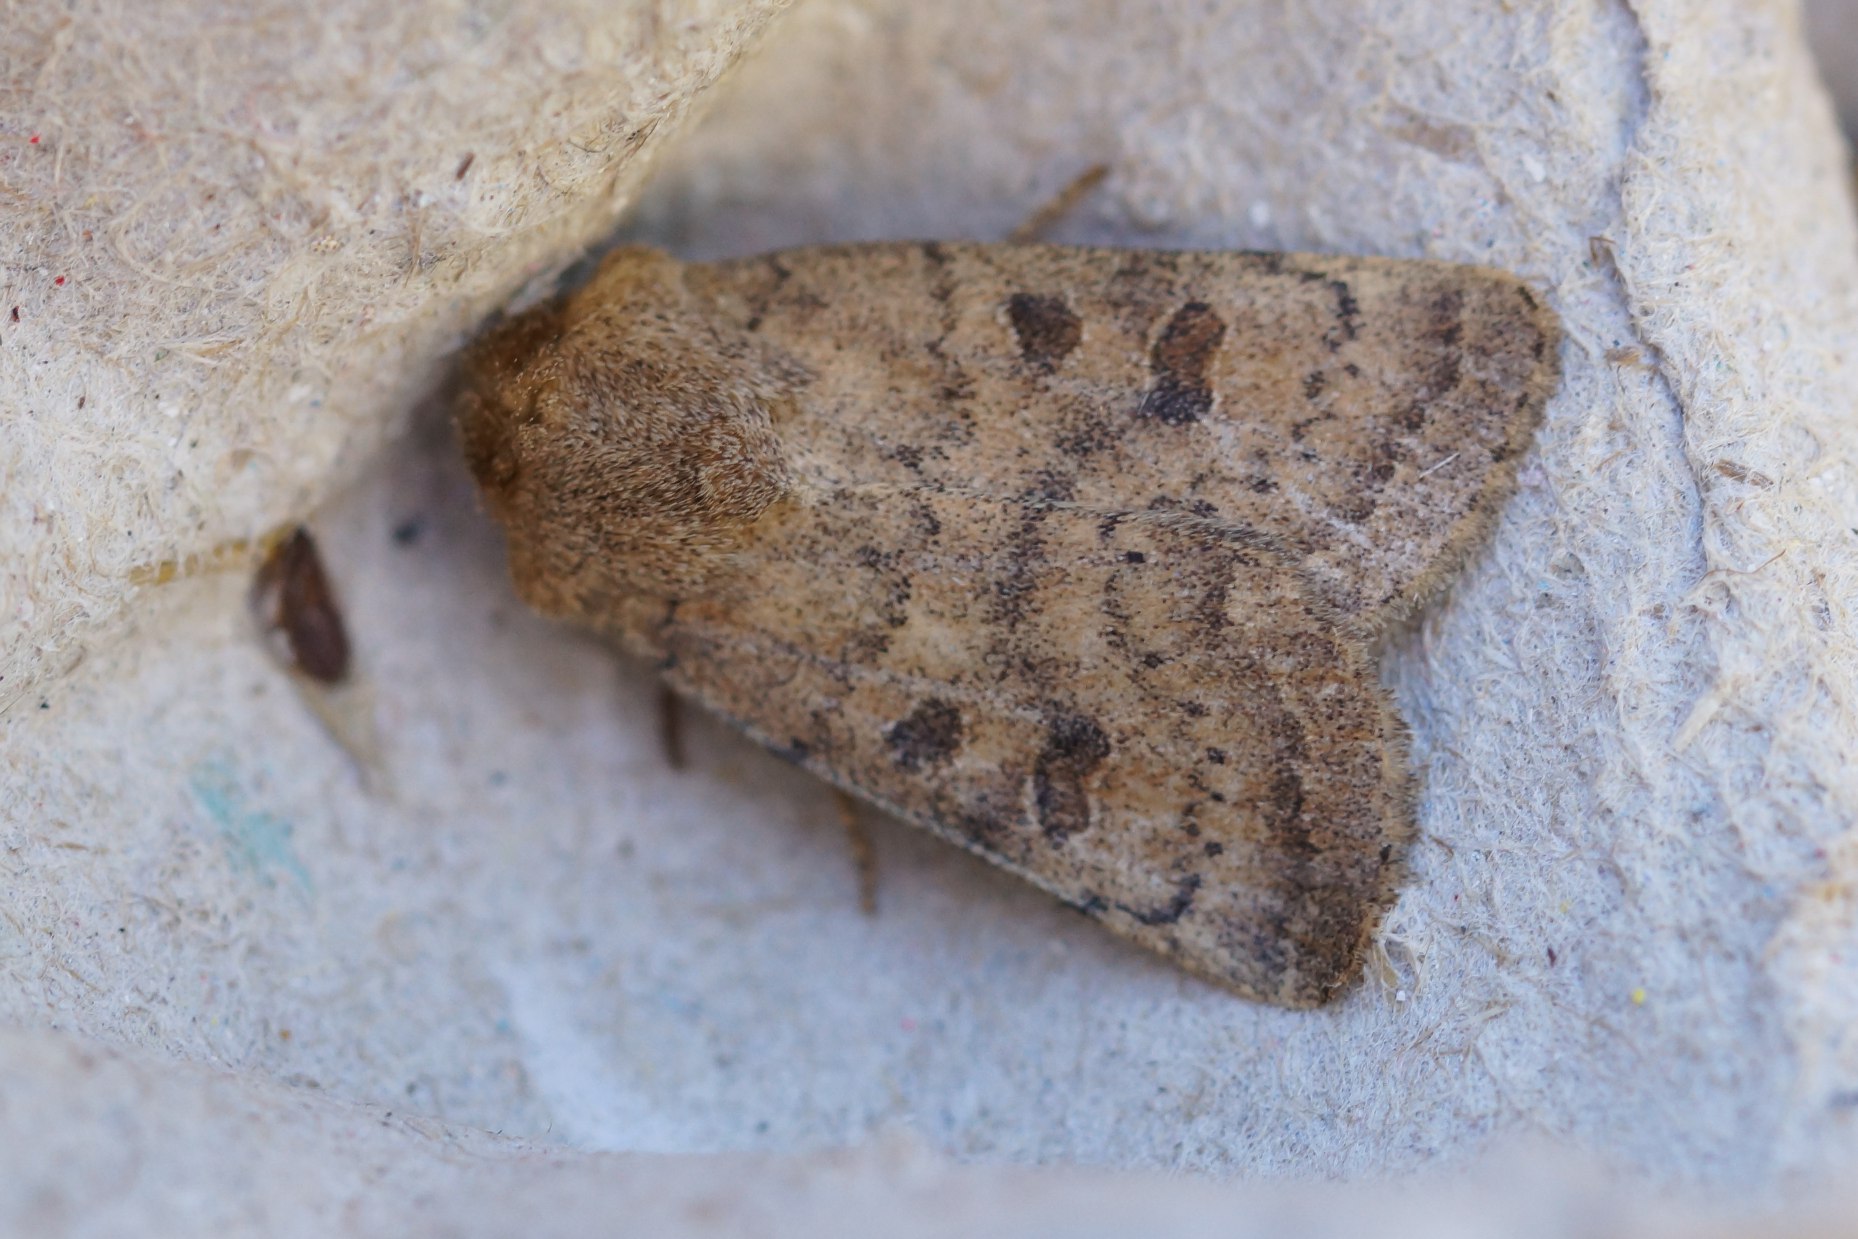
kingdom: Animalia
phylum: Arthropoda
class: Insecta
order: Lepidoptera
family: Noctuidae
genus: Hoplodrina
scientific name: Hoplodrina octogenaria
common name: Døvnældeugle
